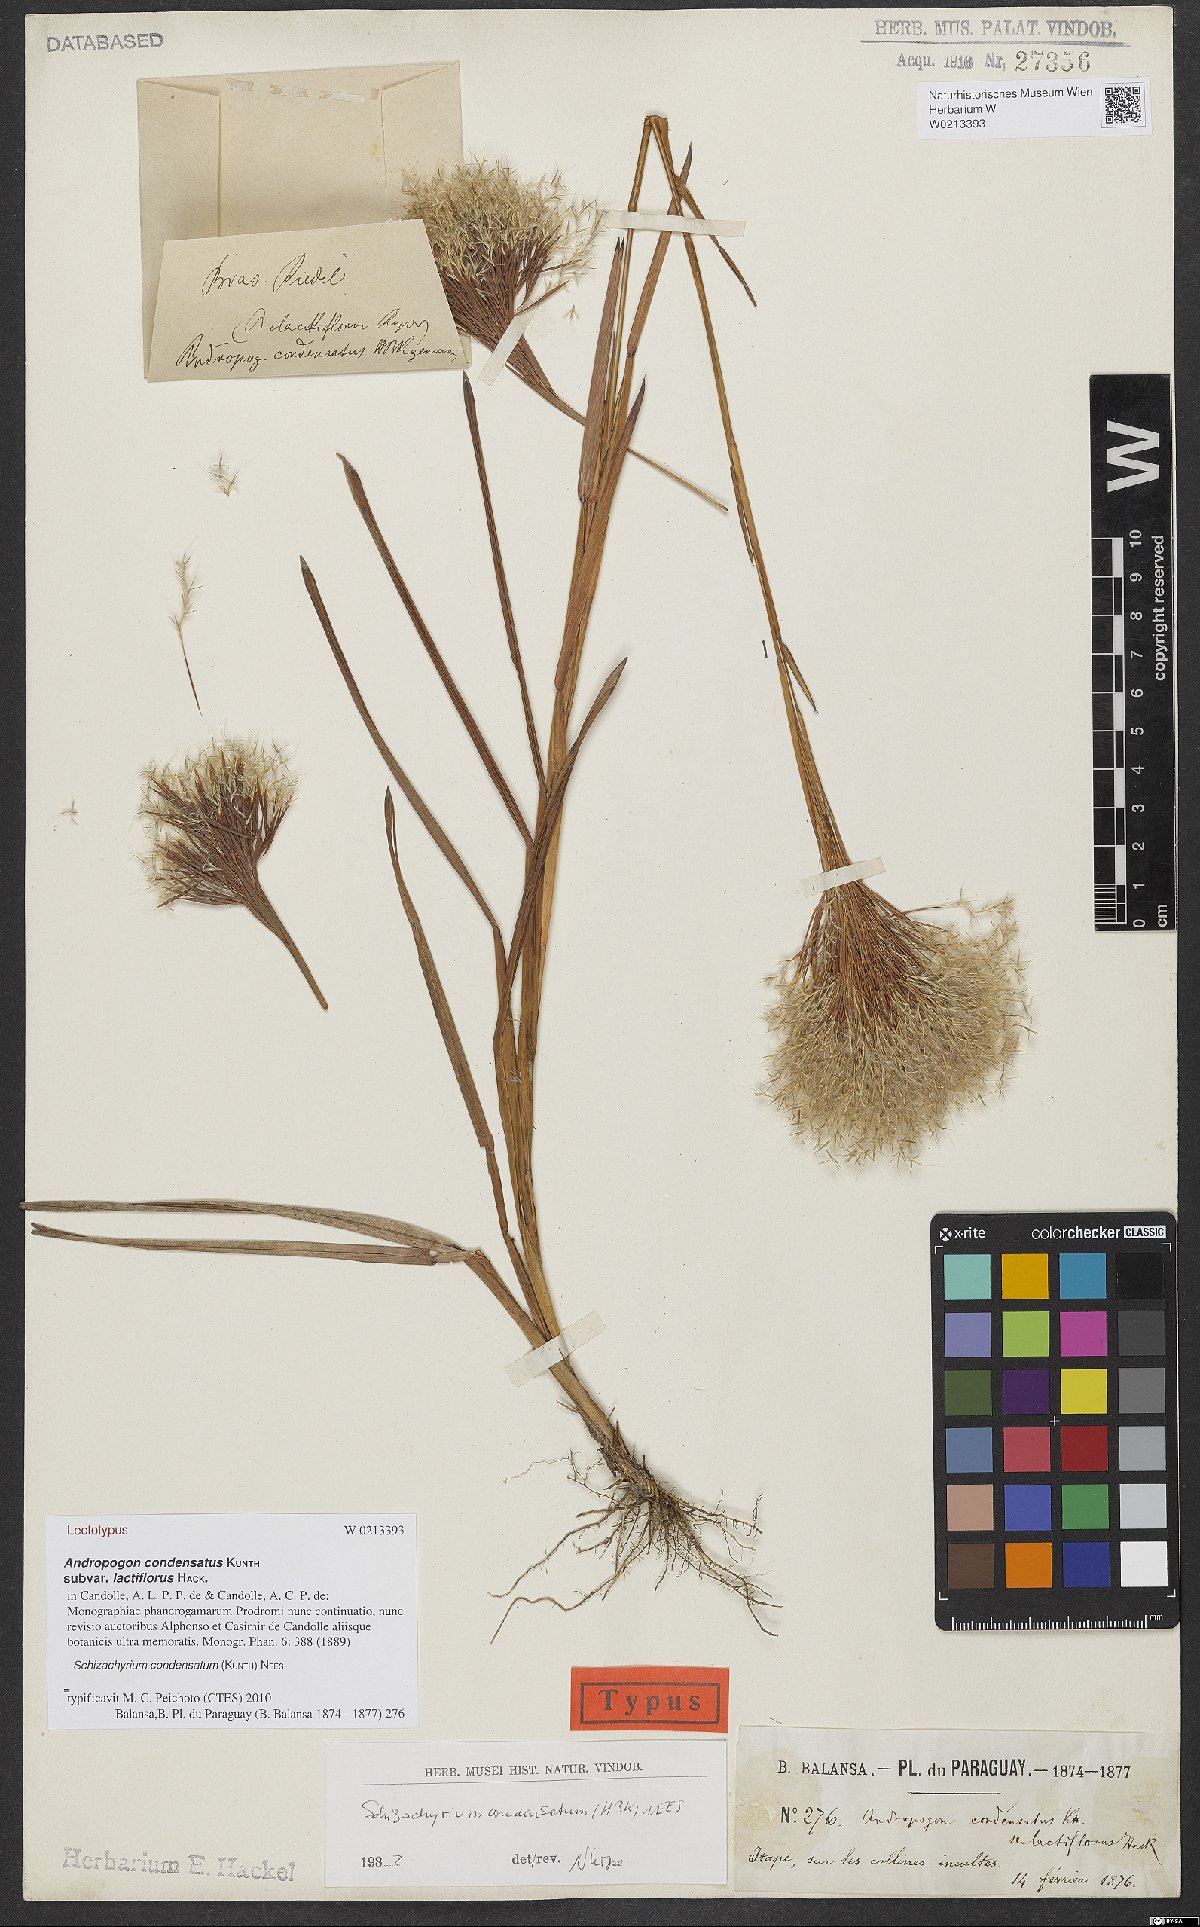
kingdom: Plantae
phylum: Tracheophyta
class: Liliopsida
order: Poales
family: Poaceae
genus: Schizachyrium
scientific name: Schizachyrium condensatum
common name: Bush beardgrass
